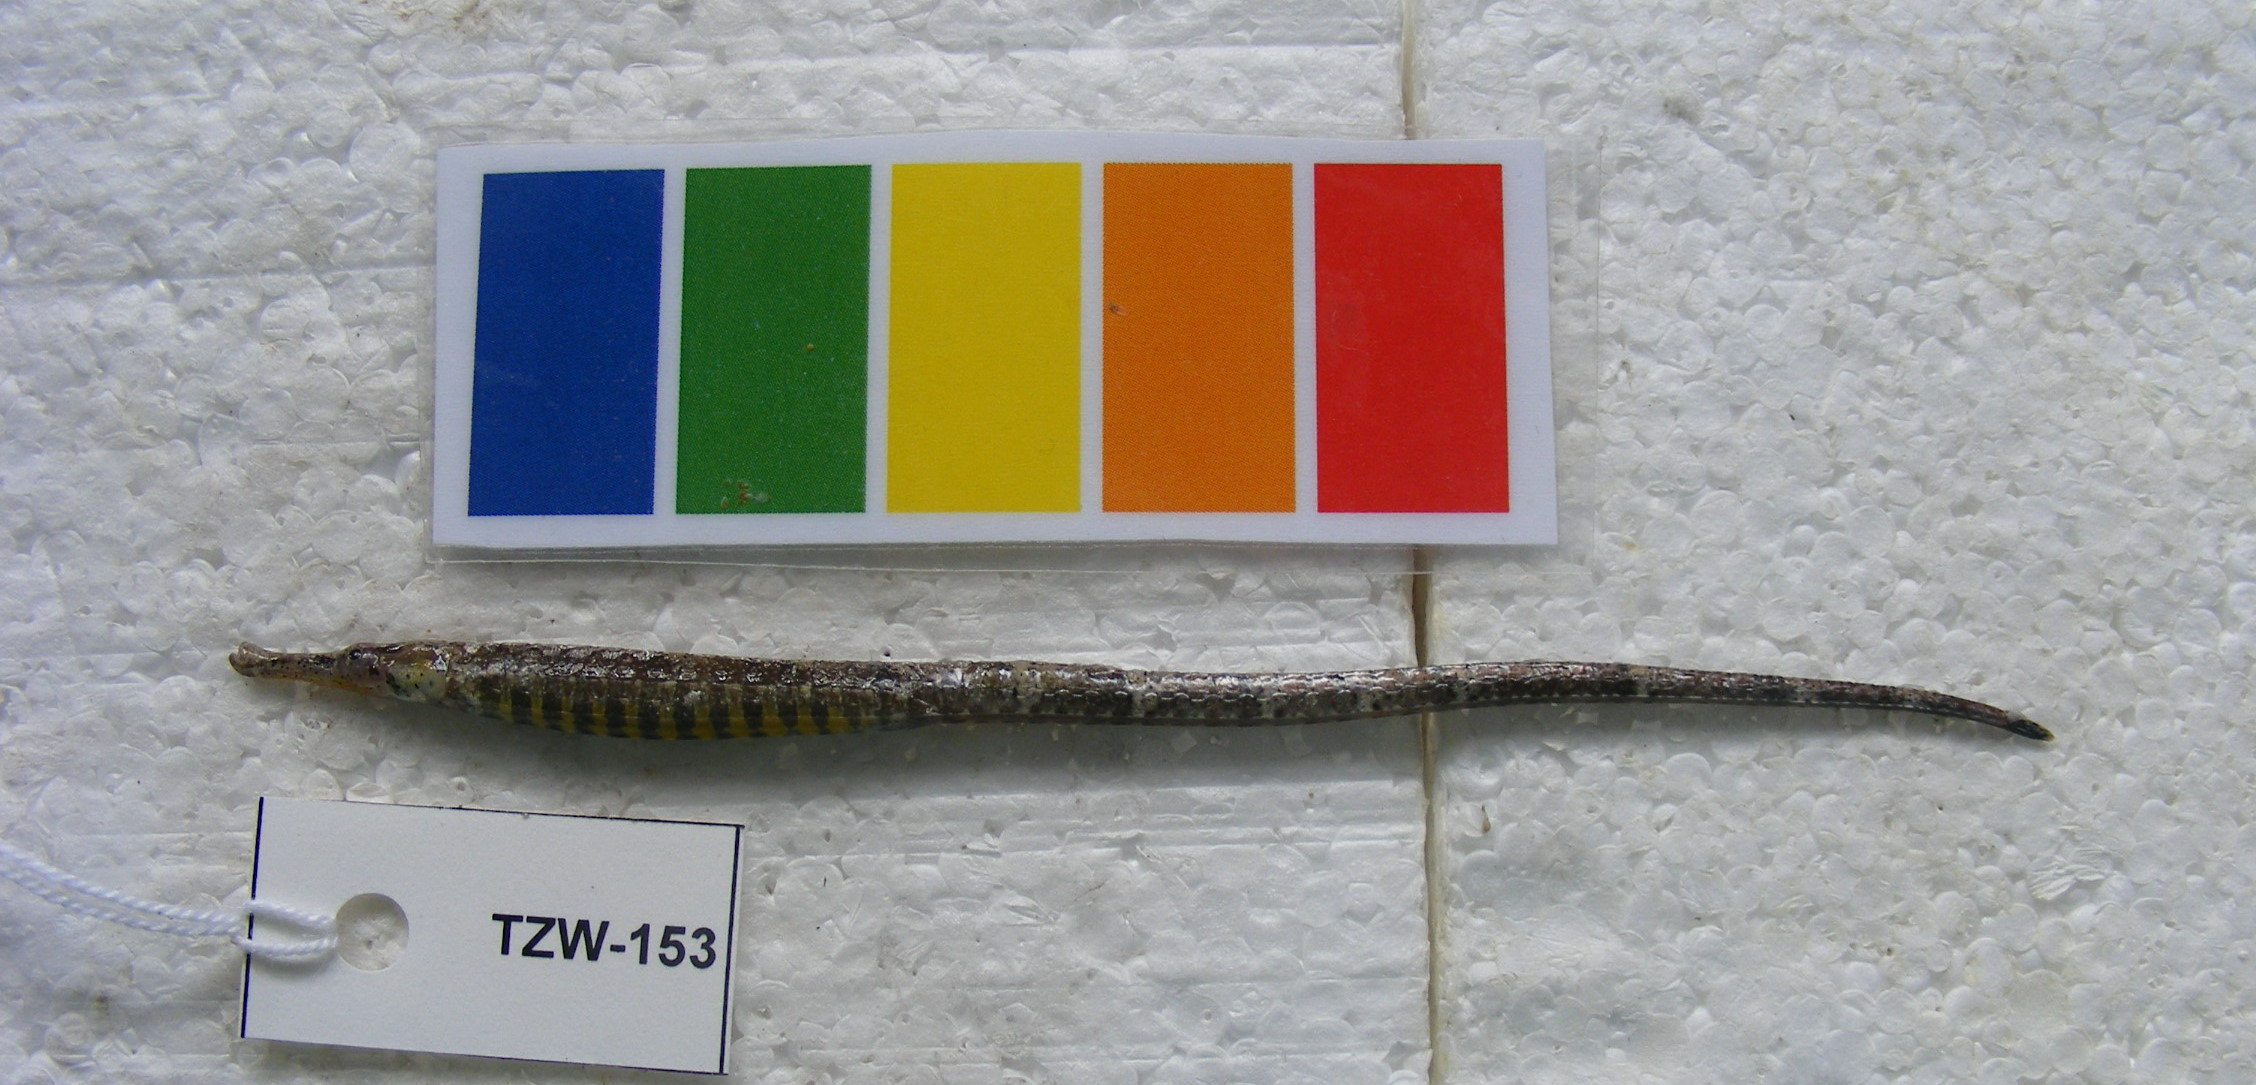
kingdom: Animalia
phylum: Chordata
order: Syngnathiformes
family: Syngnathidae
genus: Hippichthys
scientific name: Hippichthys spicifer
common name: Banded freshwater pipefish
